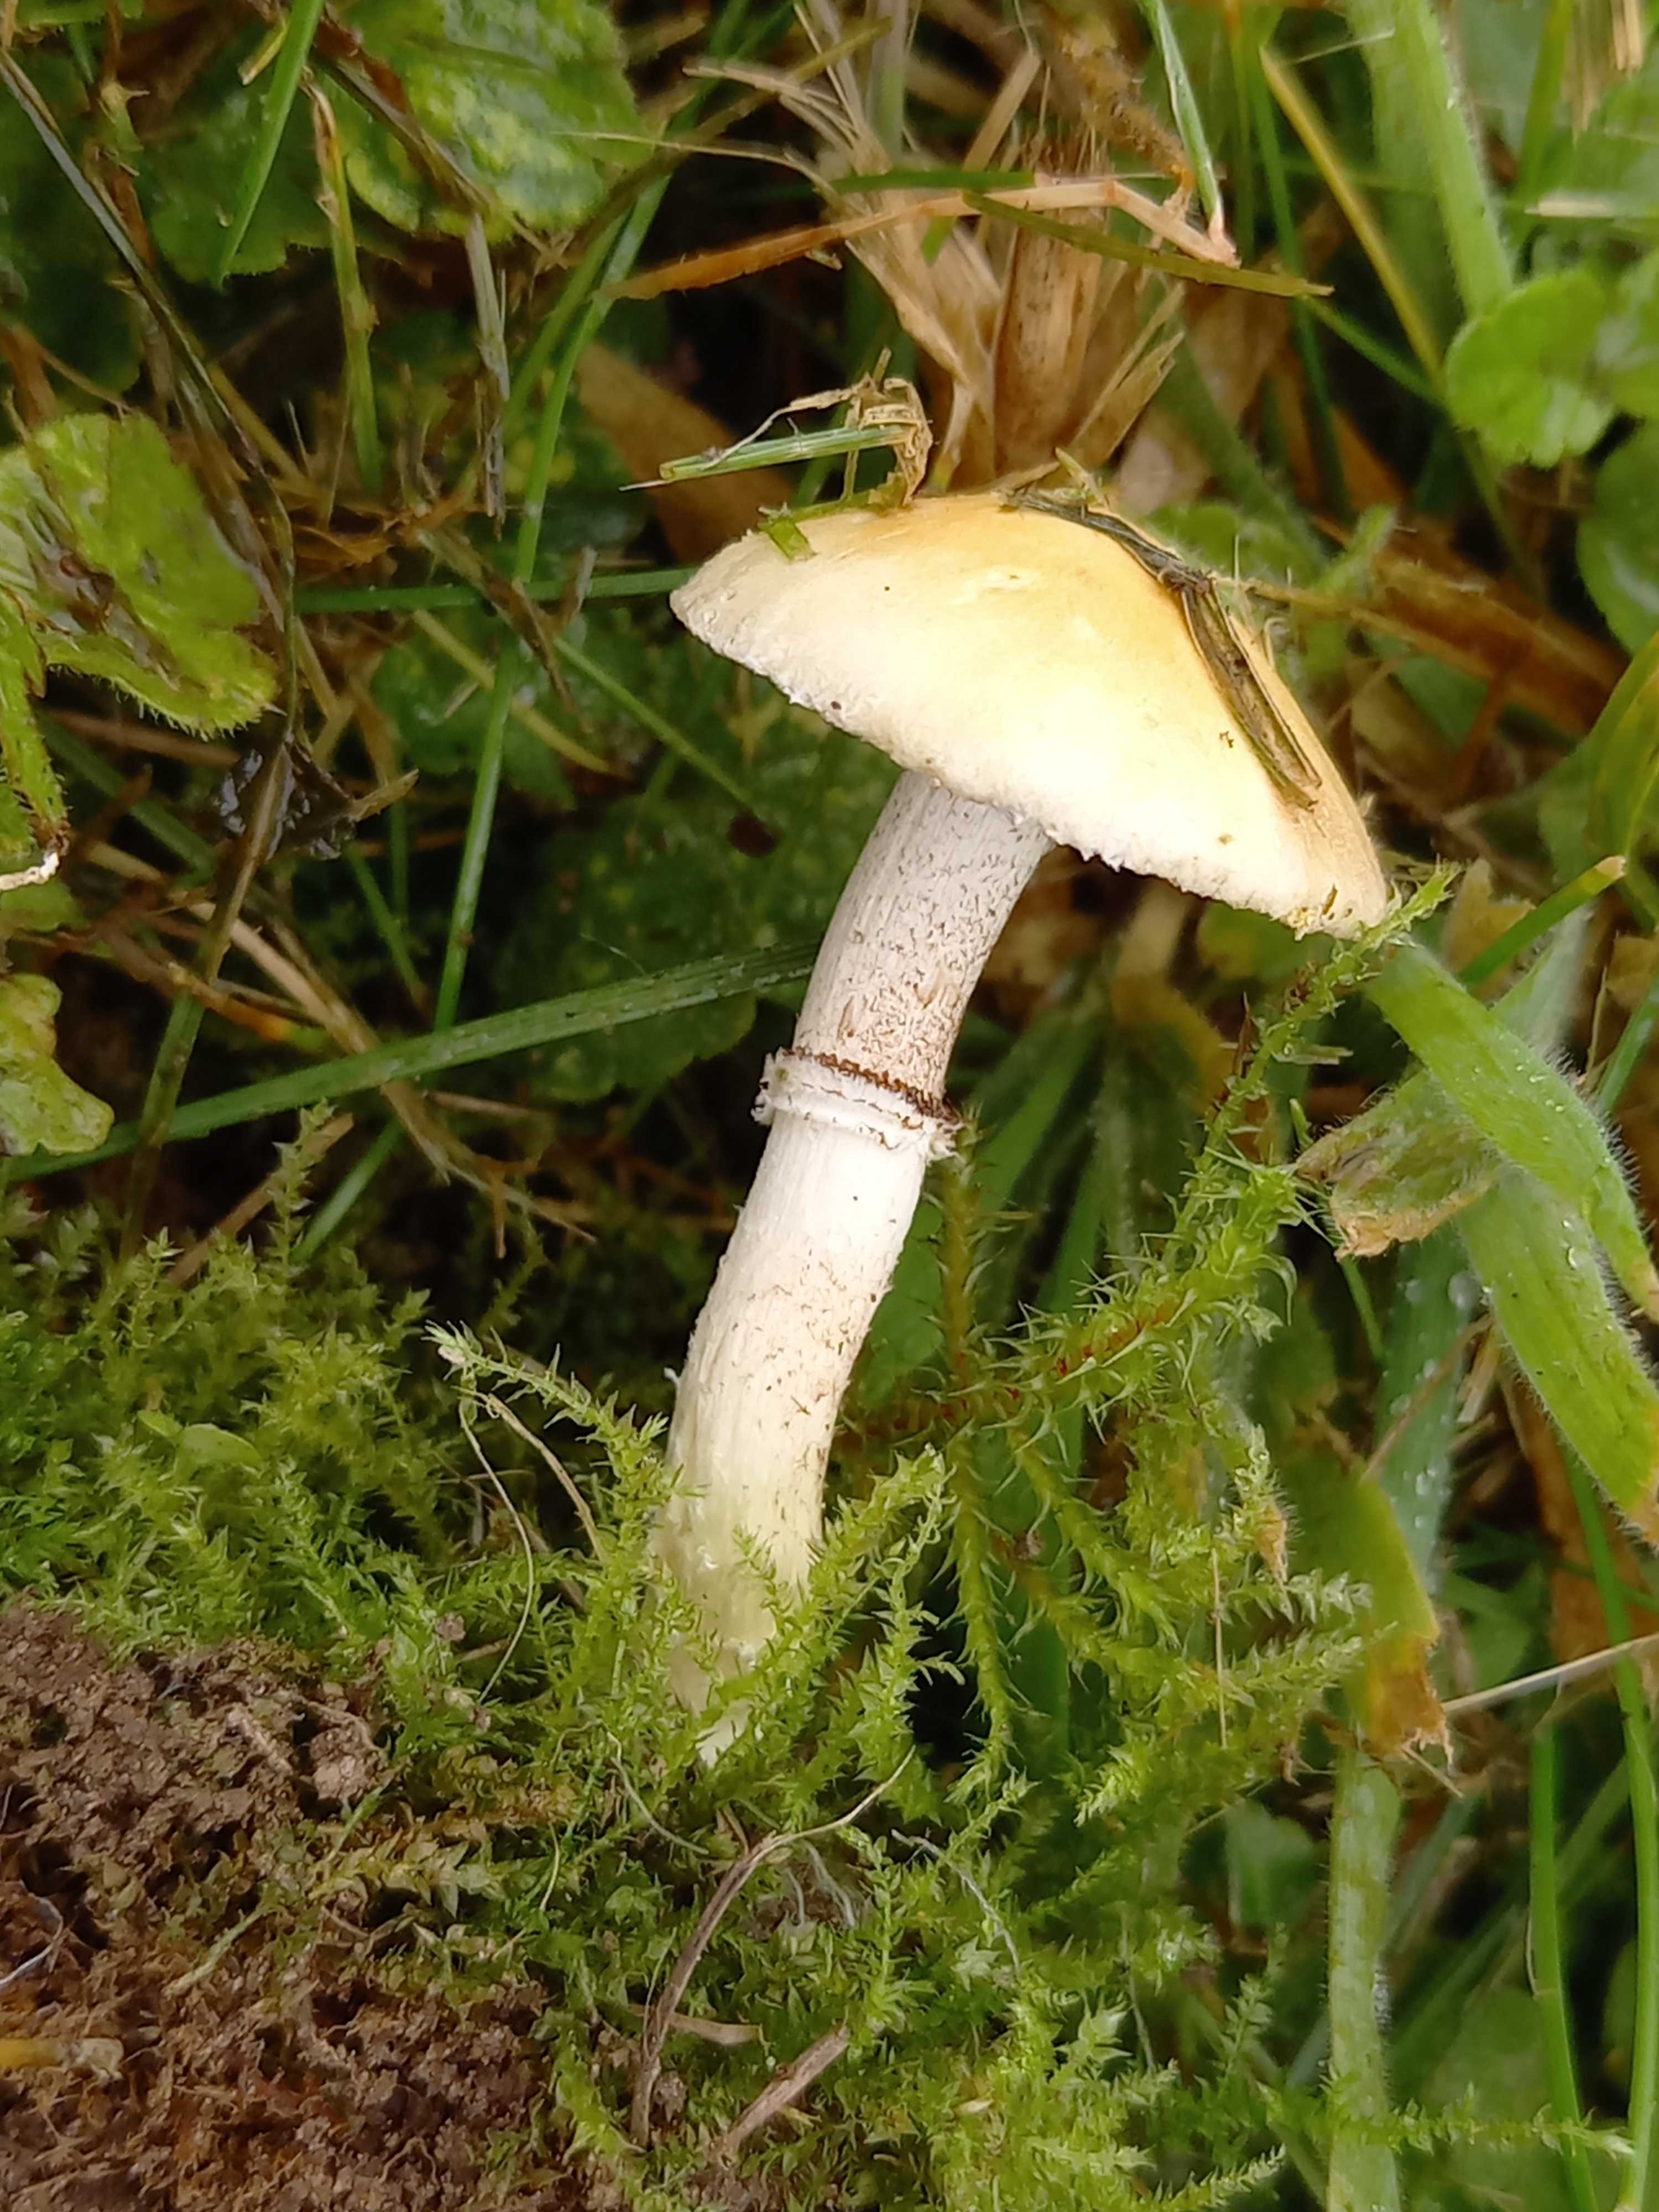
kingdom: Fungi
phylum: Basidiomycota
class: Agaricomycetes
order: Agaricales
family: Hymenogastraceae
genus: Psilocybe
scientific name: Psilocybe coronilla
